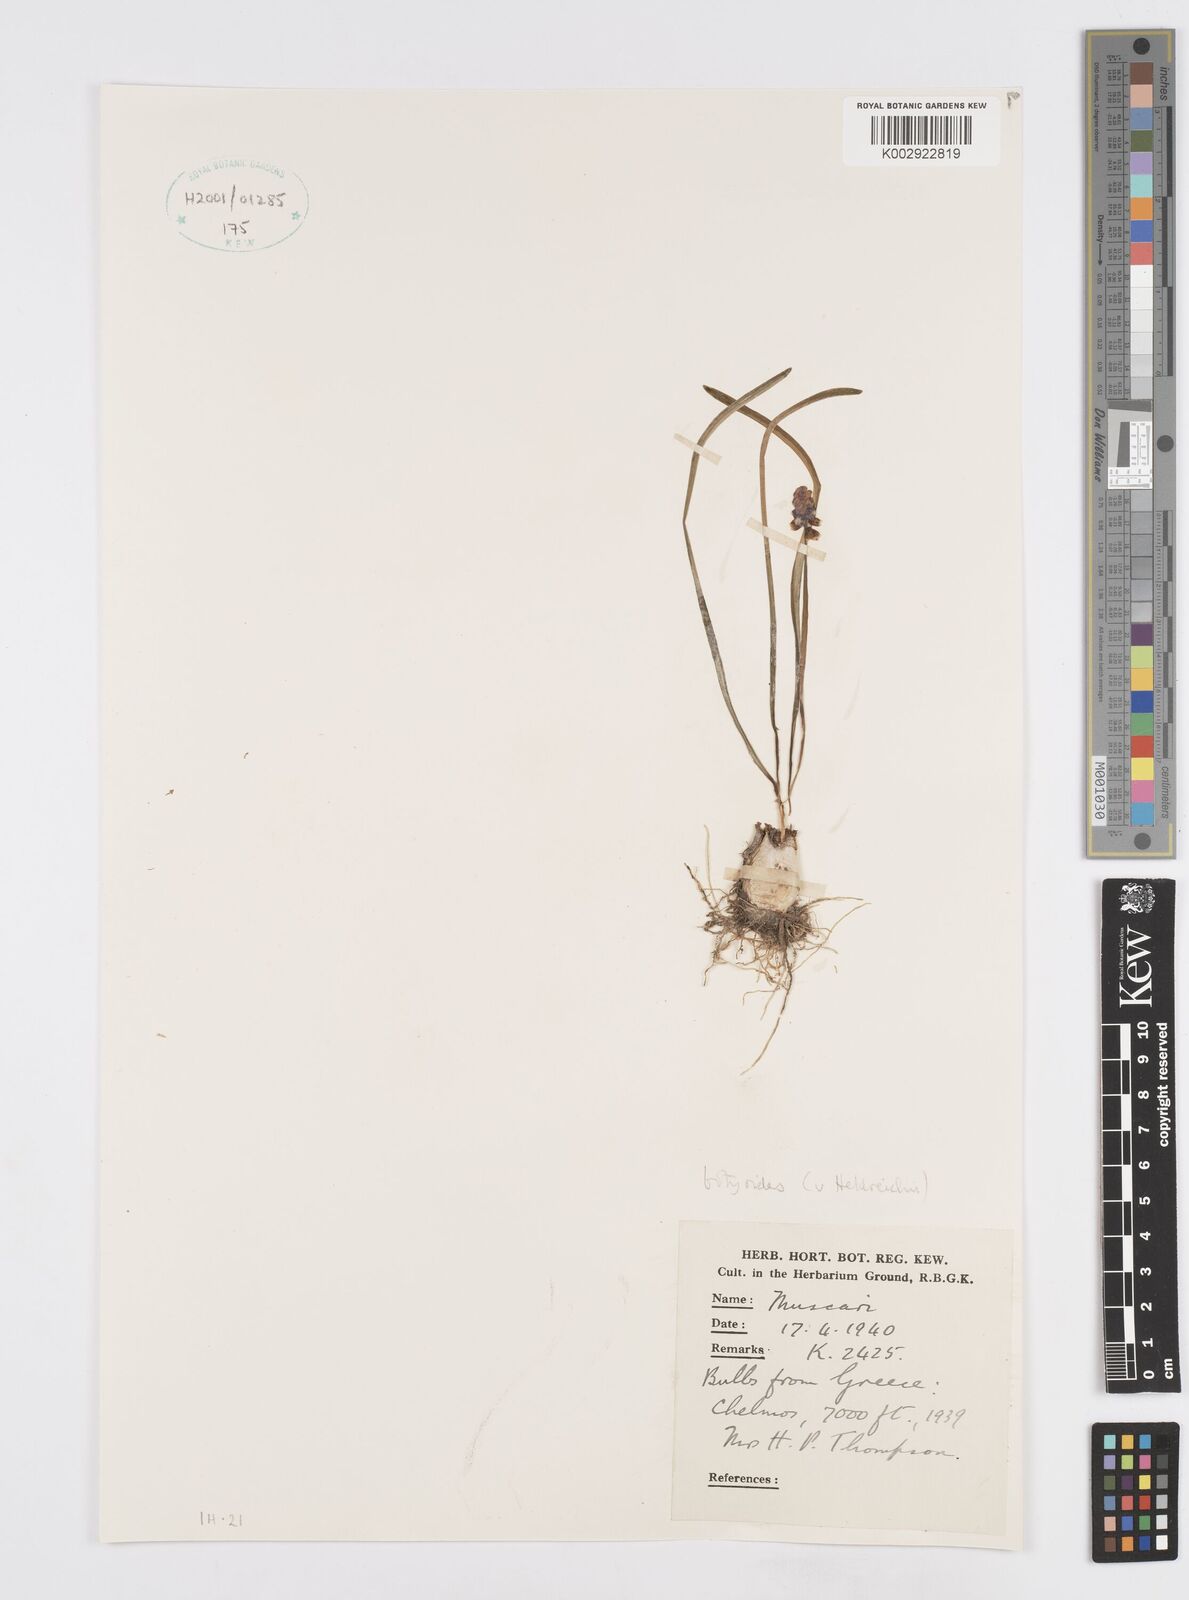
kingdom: Plantae
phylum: Tracheophyta
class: Liliopsida
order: Asparagales
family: Asparagaceae
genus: Muscari
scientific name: Muscari botryoides
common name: Compact grape-hyacinth
